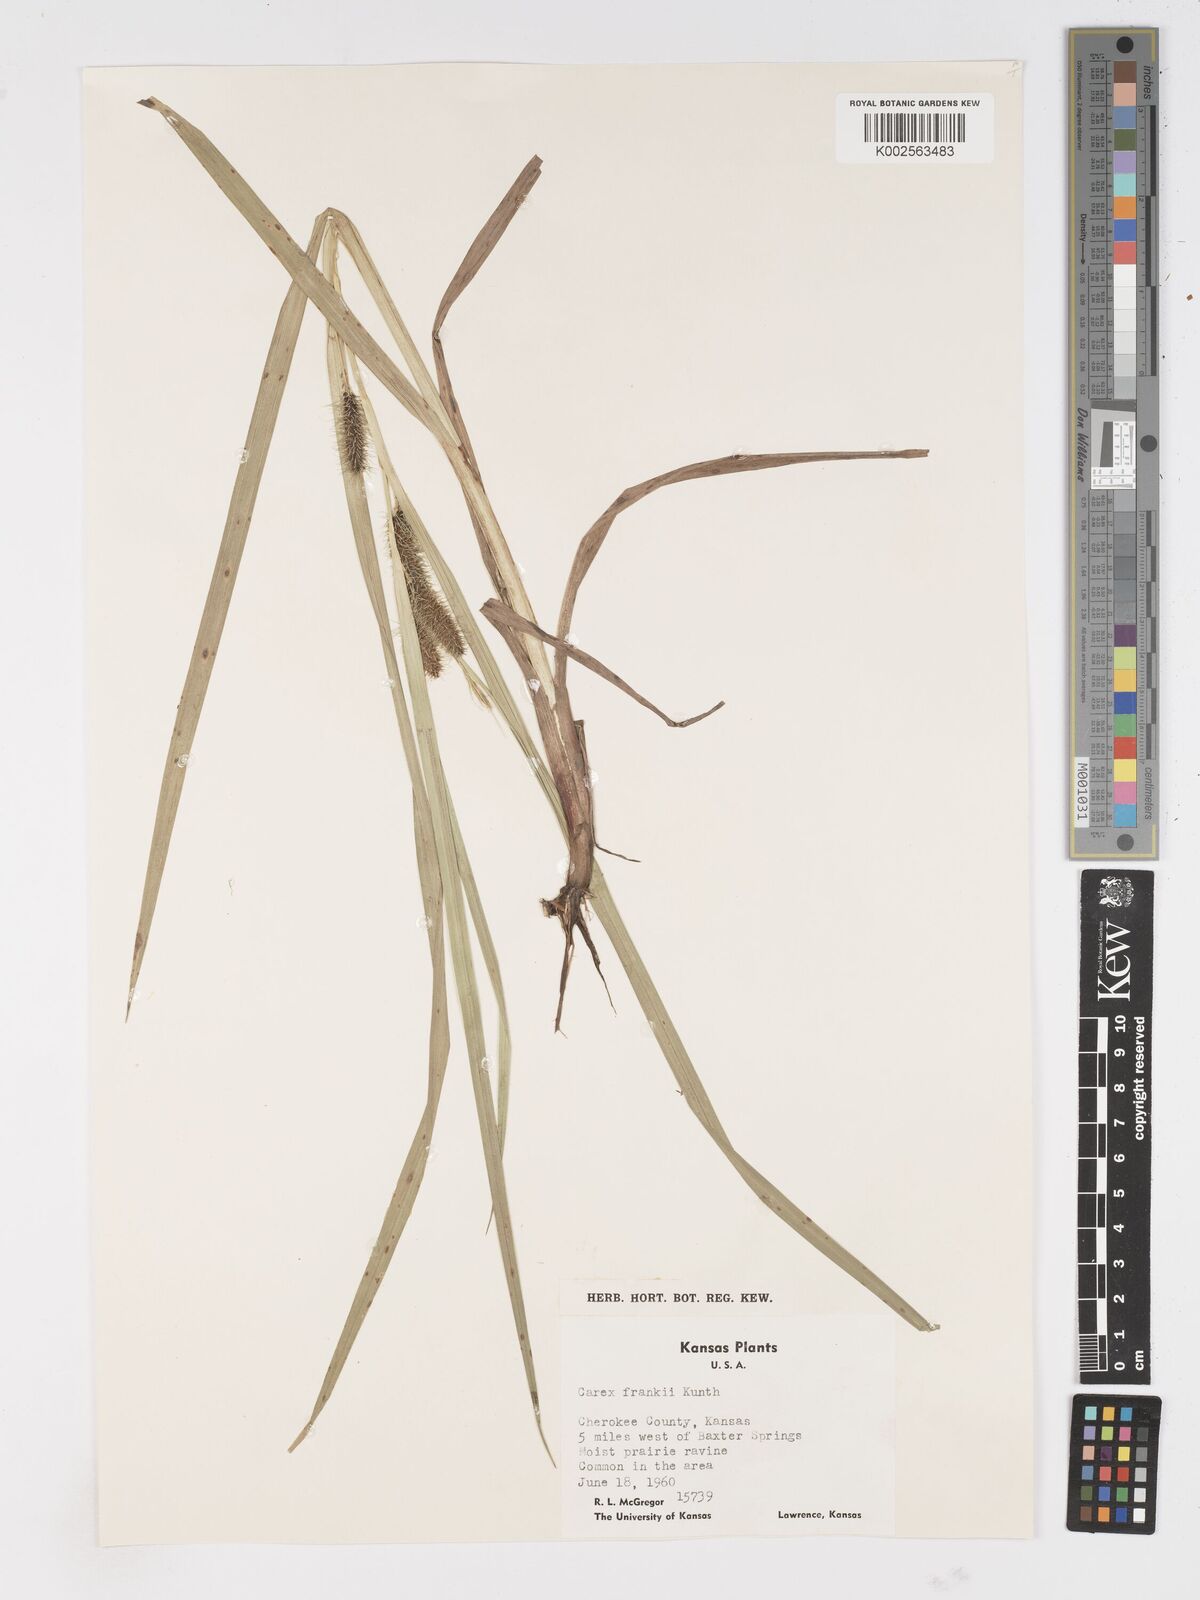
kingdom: Plantae
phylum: Tracheophyta
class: Liliopsida
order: Poales
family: Cyperaceae
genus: Carex
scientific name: Carex frankii
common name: Frank's sedge
